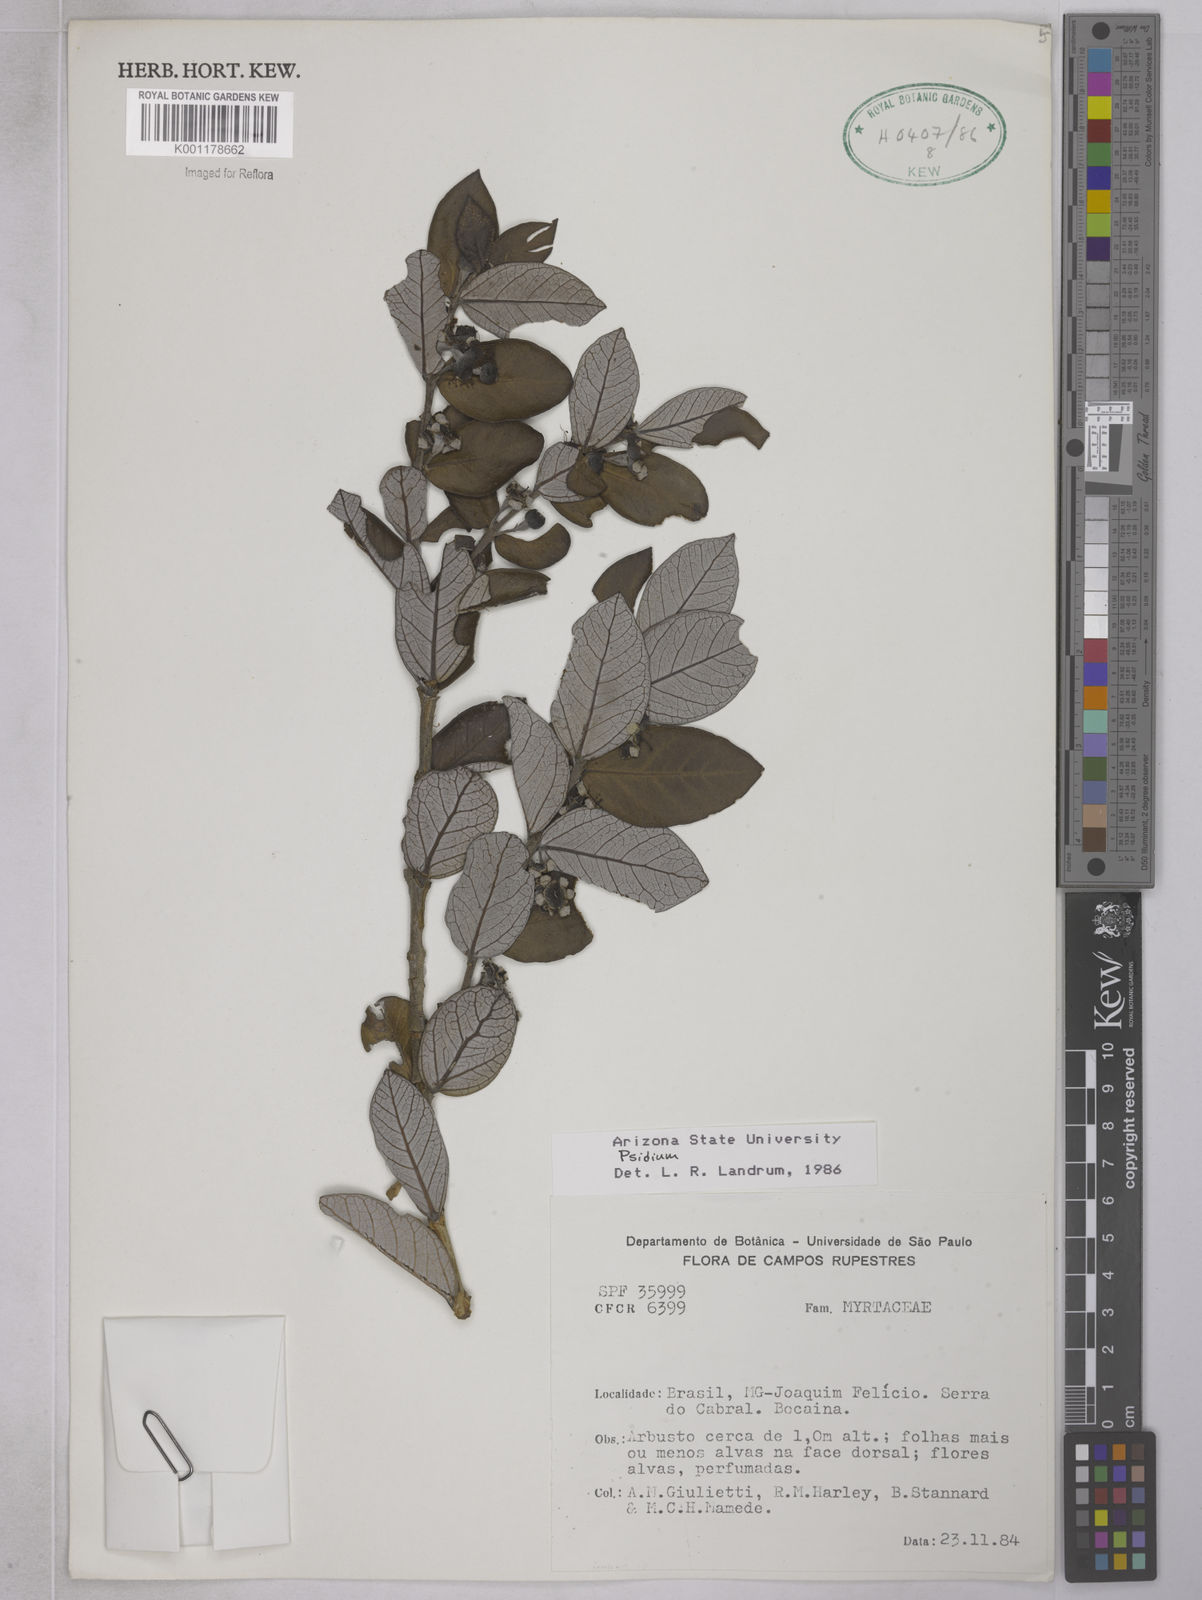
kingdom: Plantae
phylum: Tracheophyta
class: Magnoliopsida
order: Myrtales
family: Myrtaceae
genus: Psidium
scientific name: Psidium grandifolium
